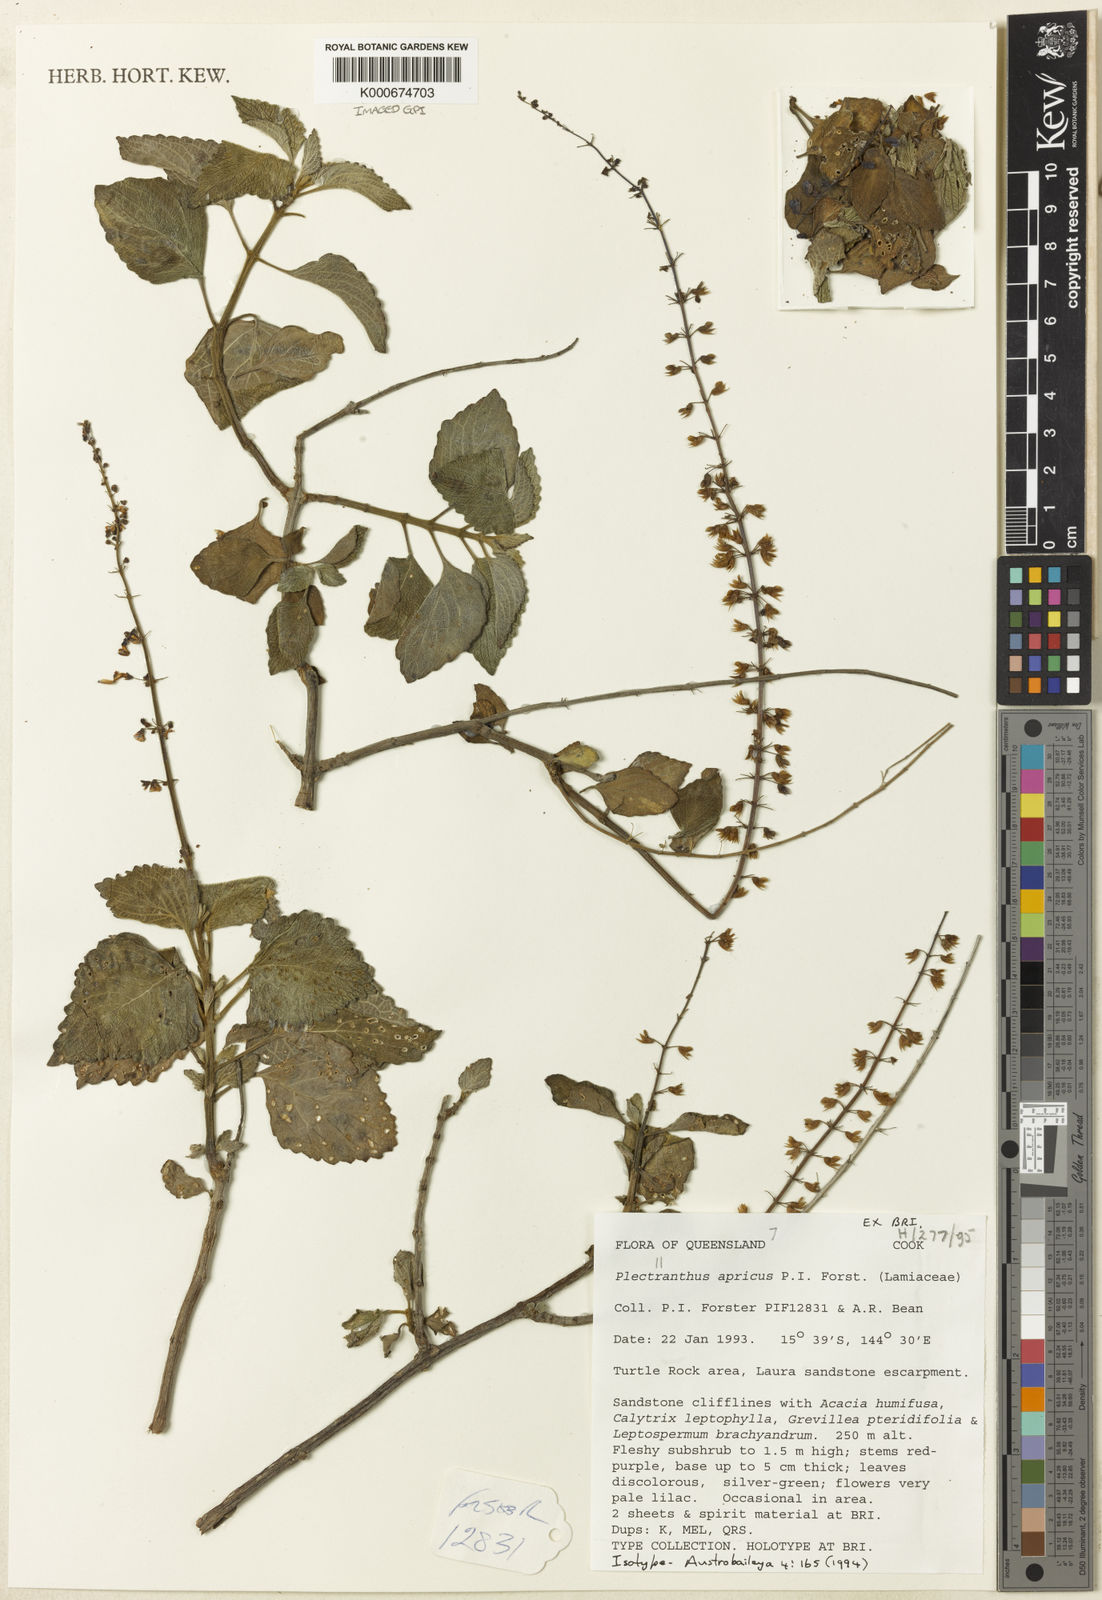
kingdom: Plantae
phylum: Tracheophyta
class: Magnoliopsida
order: Lamiales
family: Lamiaceae
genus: Coleus
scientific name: Coleus apricus
